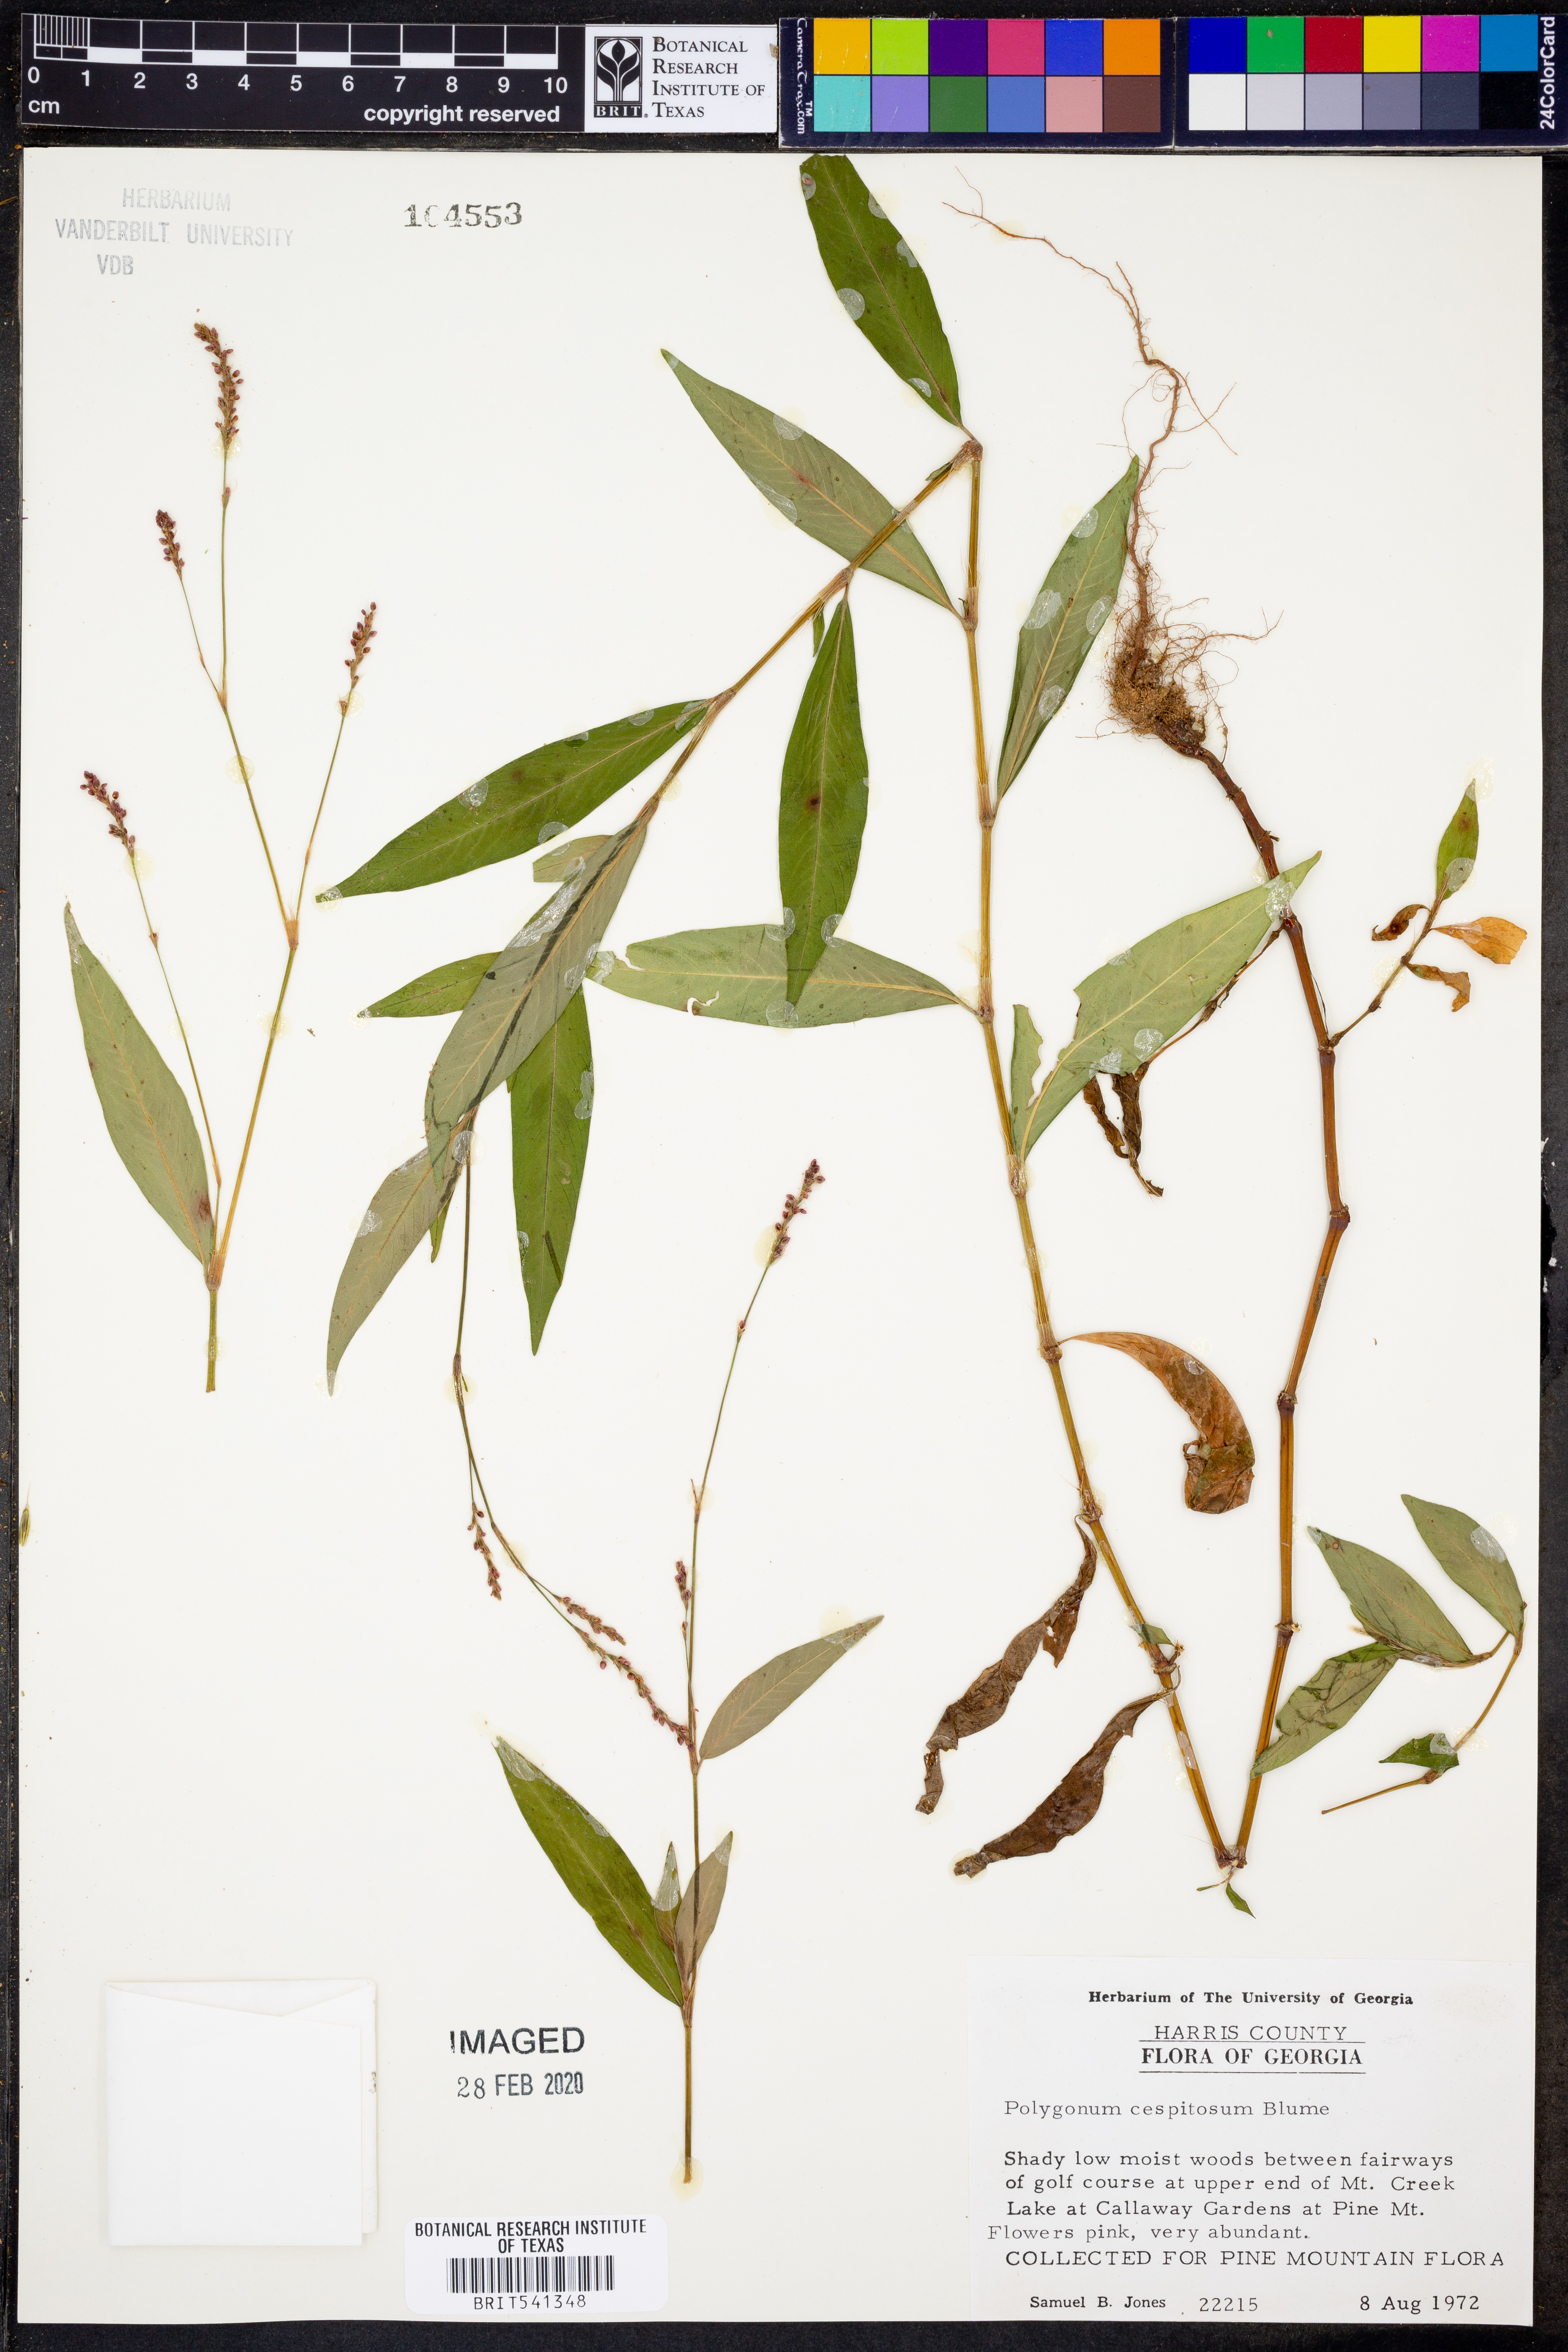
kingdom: Plantae
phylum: Tracheophyta
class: Magnoliopsida
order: Caryophyllales
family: Polygonaceae
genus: Persicaria
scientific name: Persicaria posumbu
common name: Oriental lady's thumb
